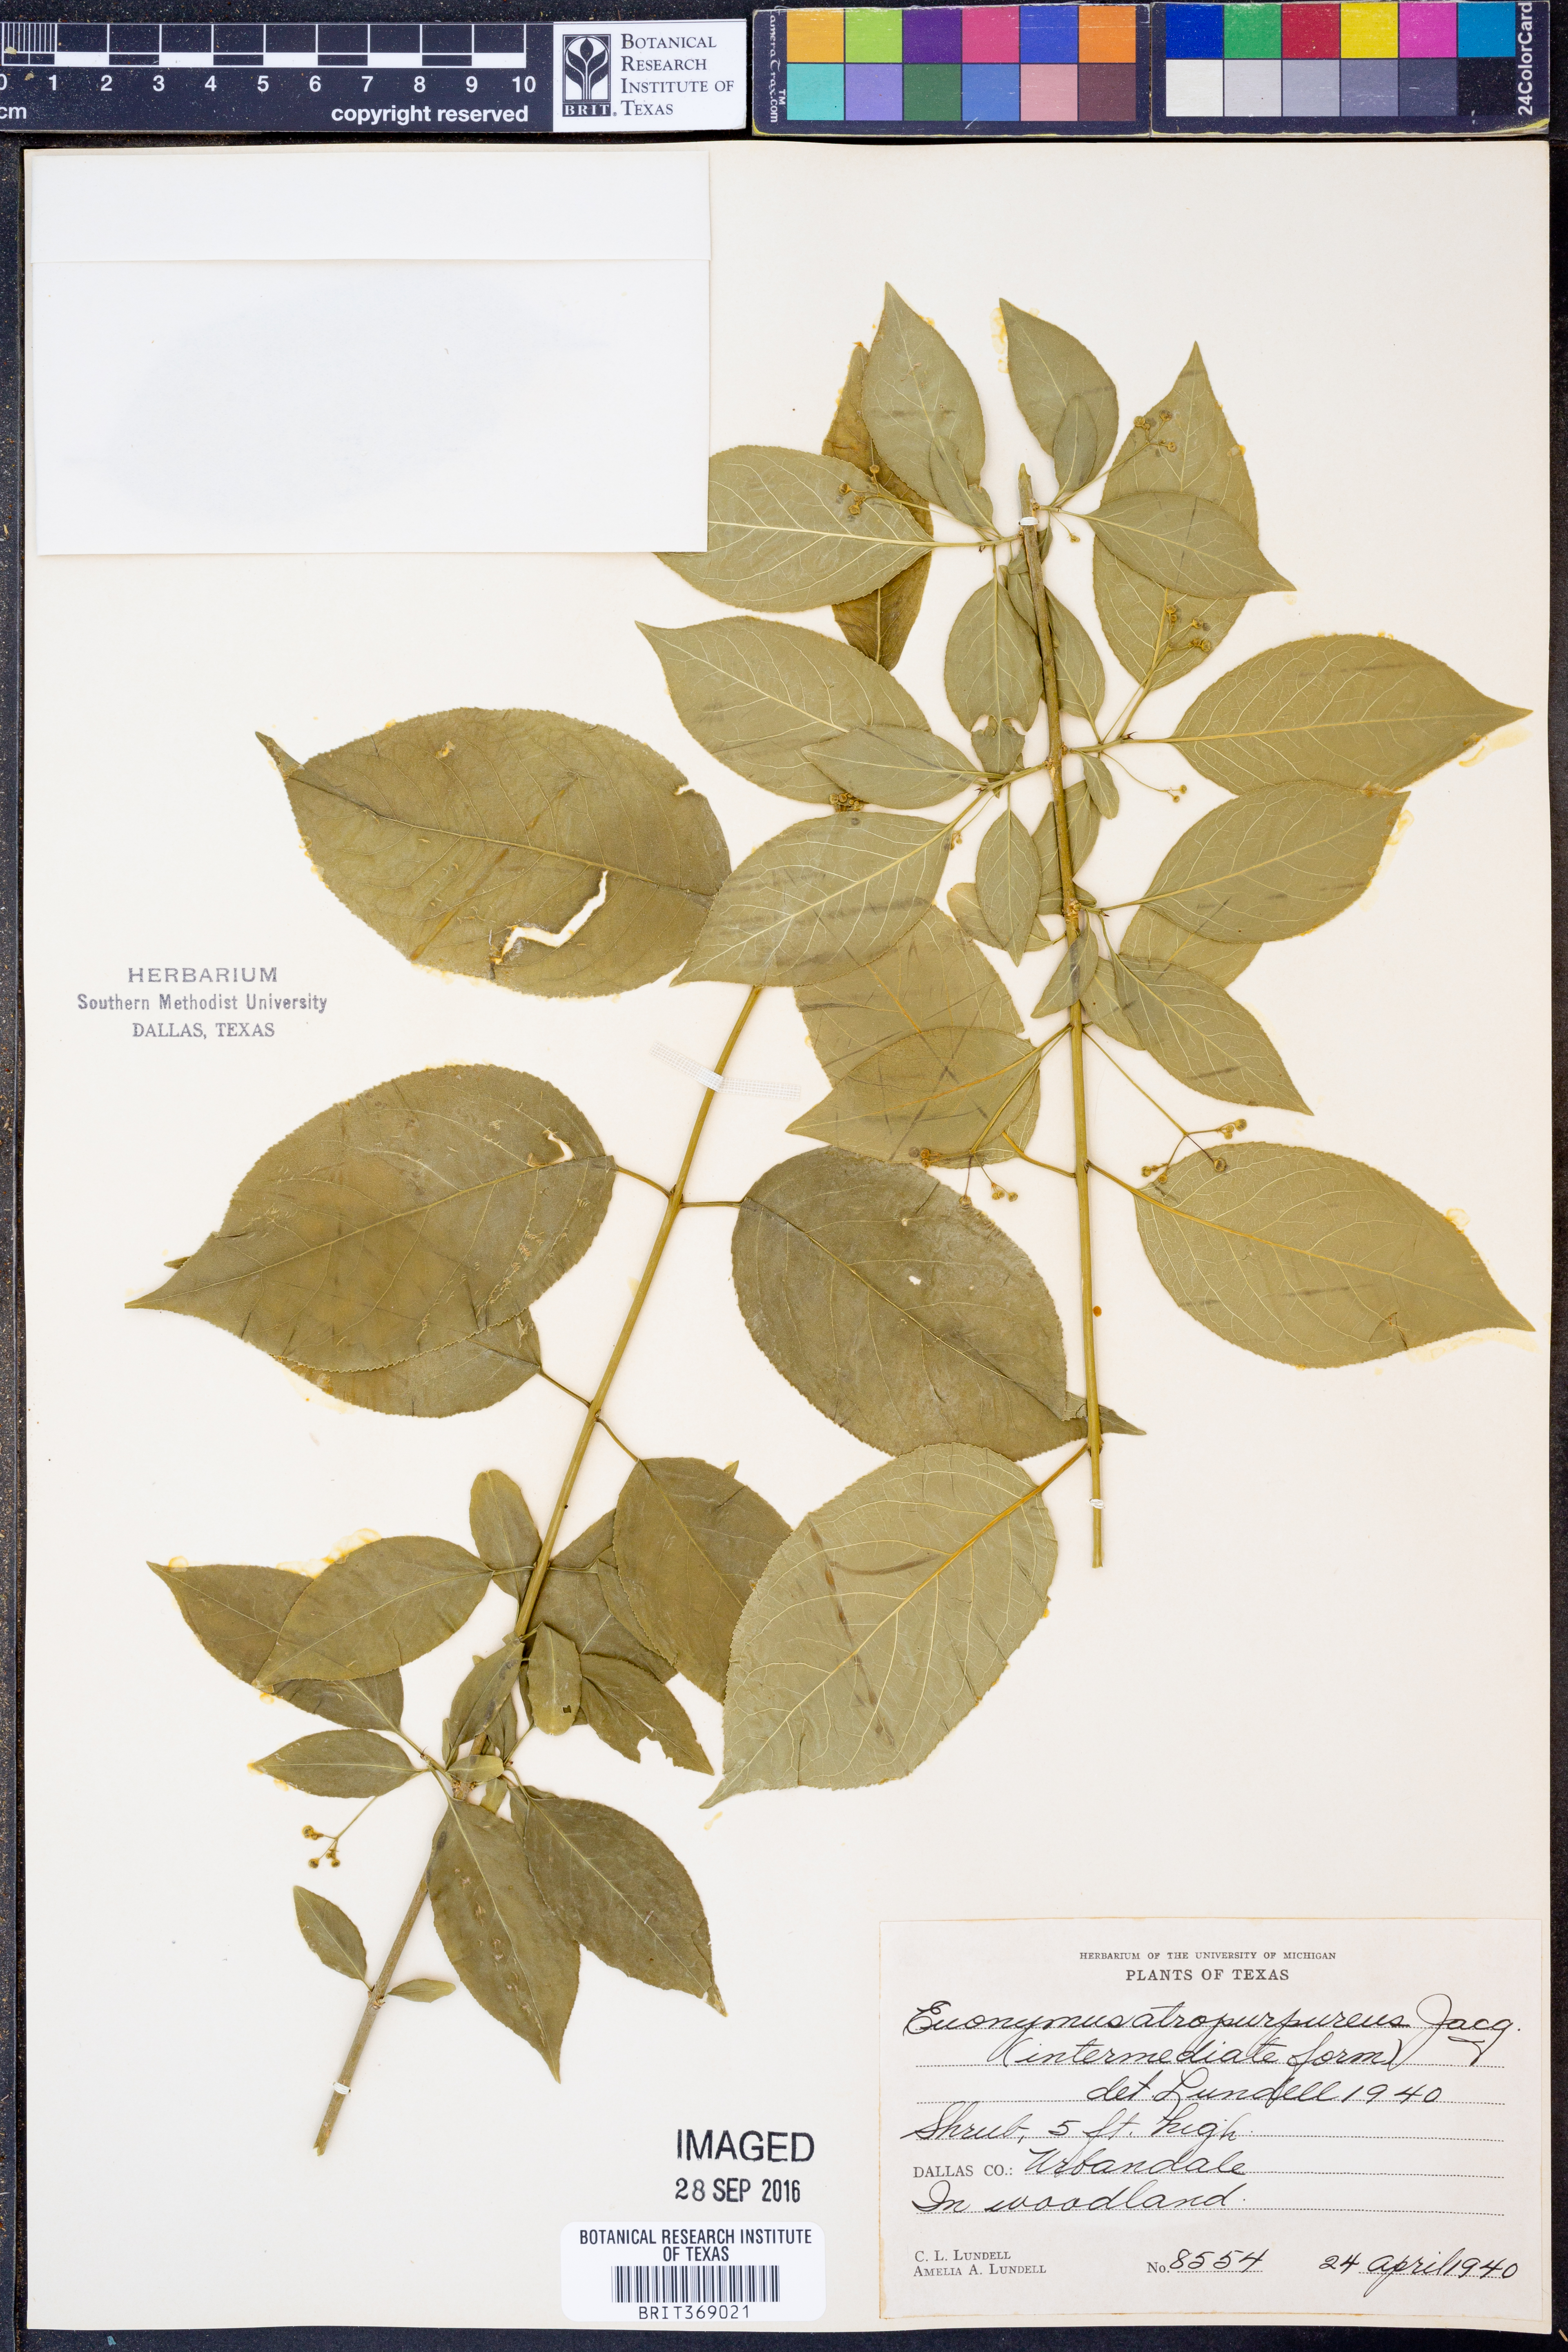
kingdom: Plantae
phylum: Tracheophyta
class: Magnoliopsida
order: Celastrales
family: Celastraceae
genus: Euonymus
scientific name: Euonymus atropurpureus
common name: Eastern wahoo
